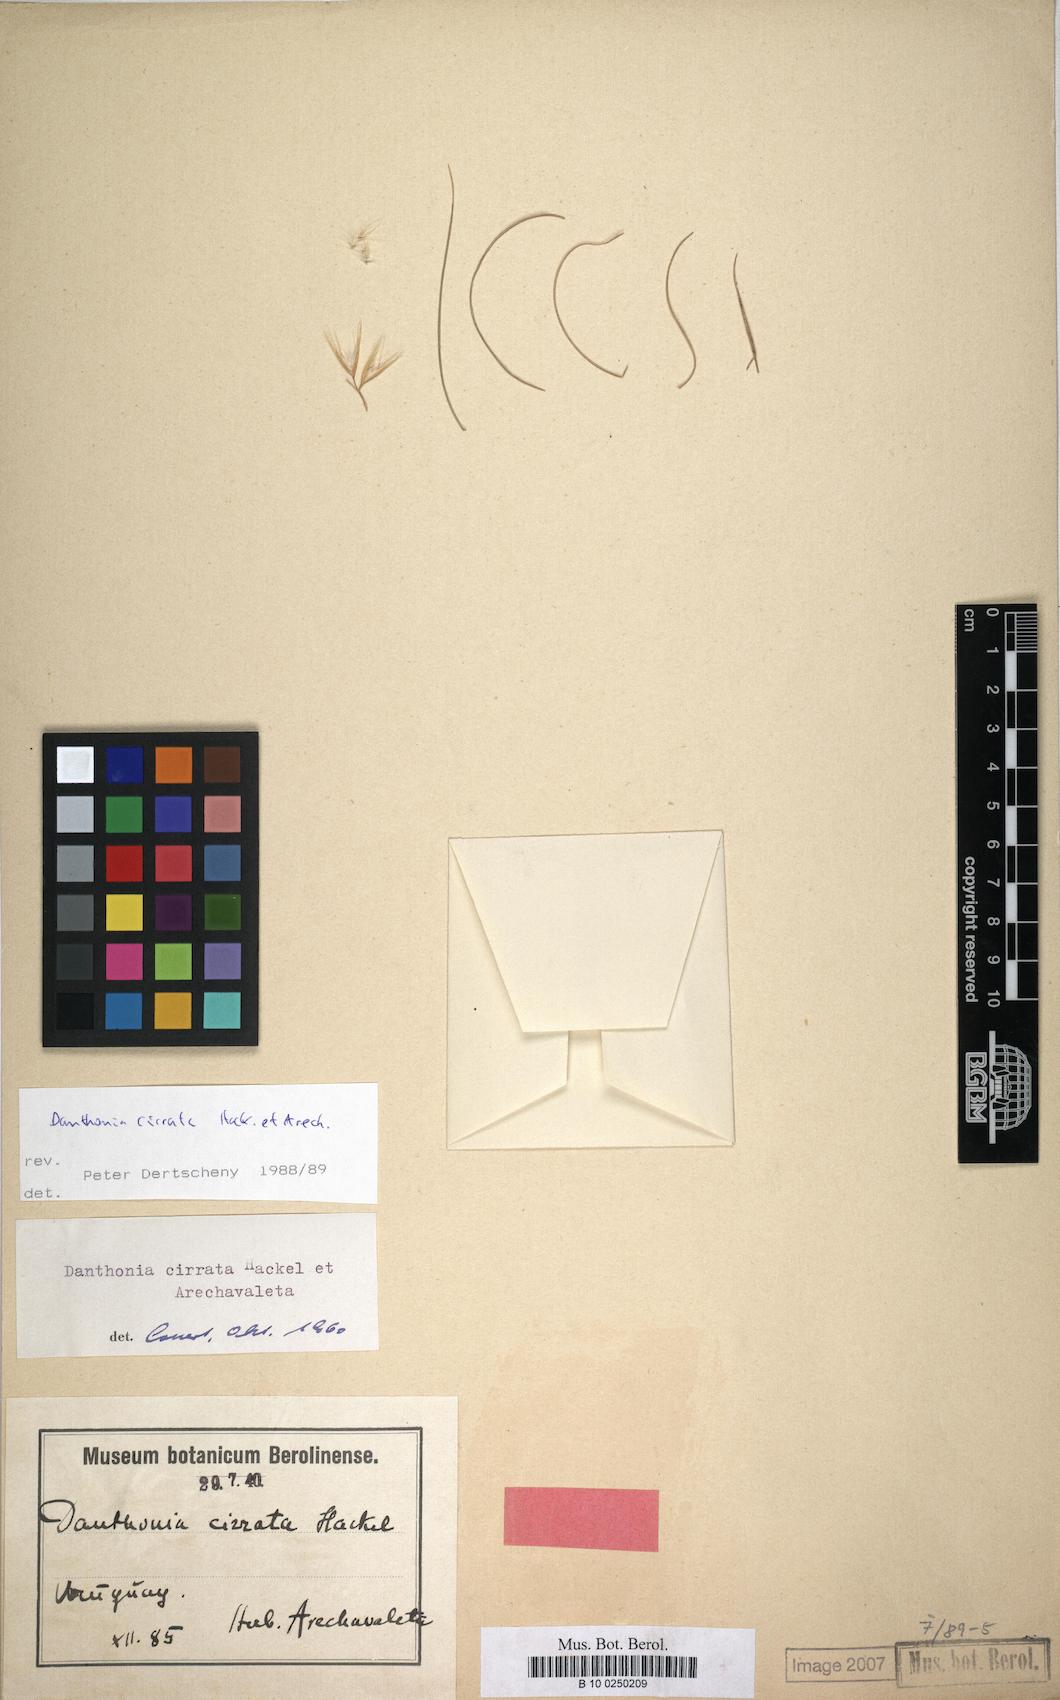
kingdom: Plantae
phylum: Tracheophyta
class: Liliopsida
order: Poales
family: Poaceae
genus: Danthonia
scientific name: Danthonia cirrata
